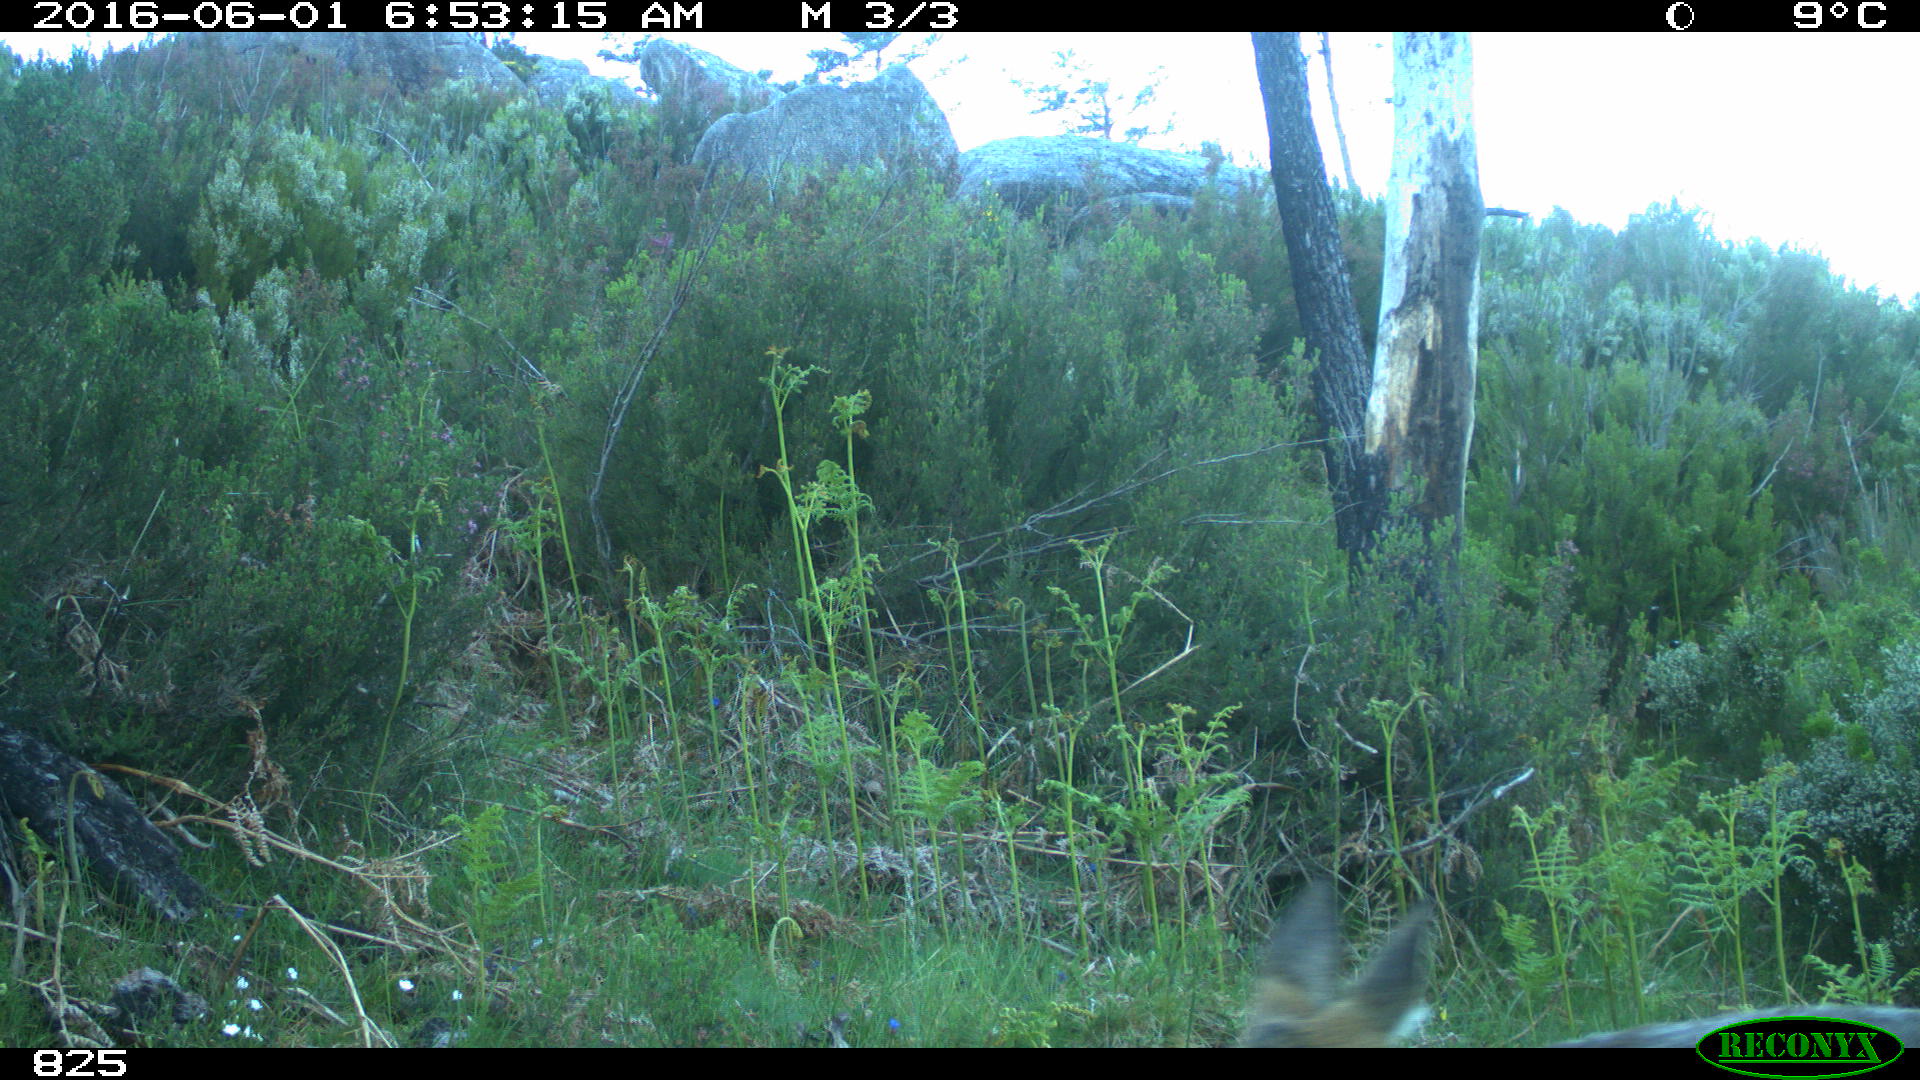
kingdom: Animalia
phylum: Chordata
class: Mammalia
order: Artiodactyla
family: Cervidae
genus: Capreolus
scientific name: Capreolus capreolus
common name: Western roe deer
